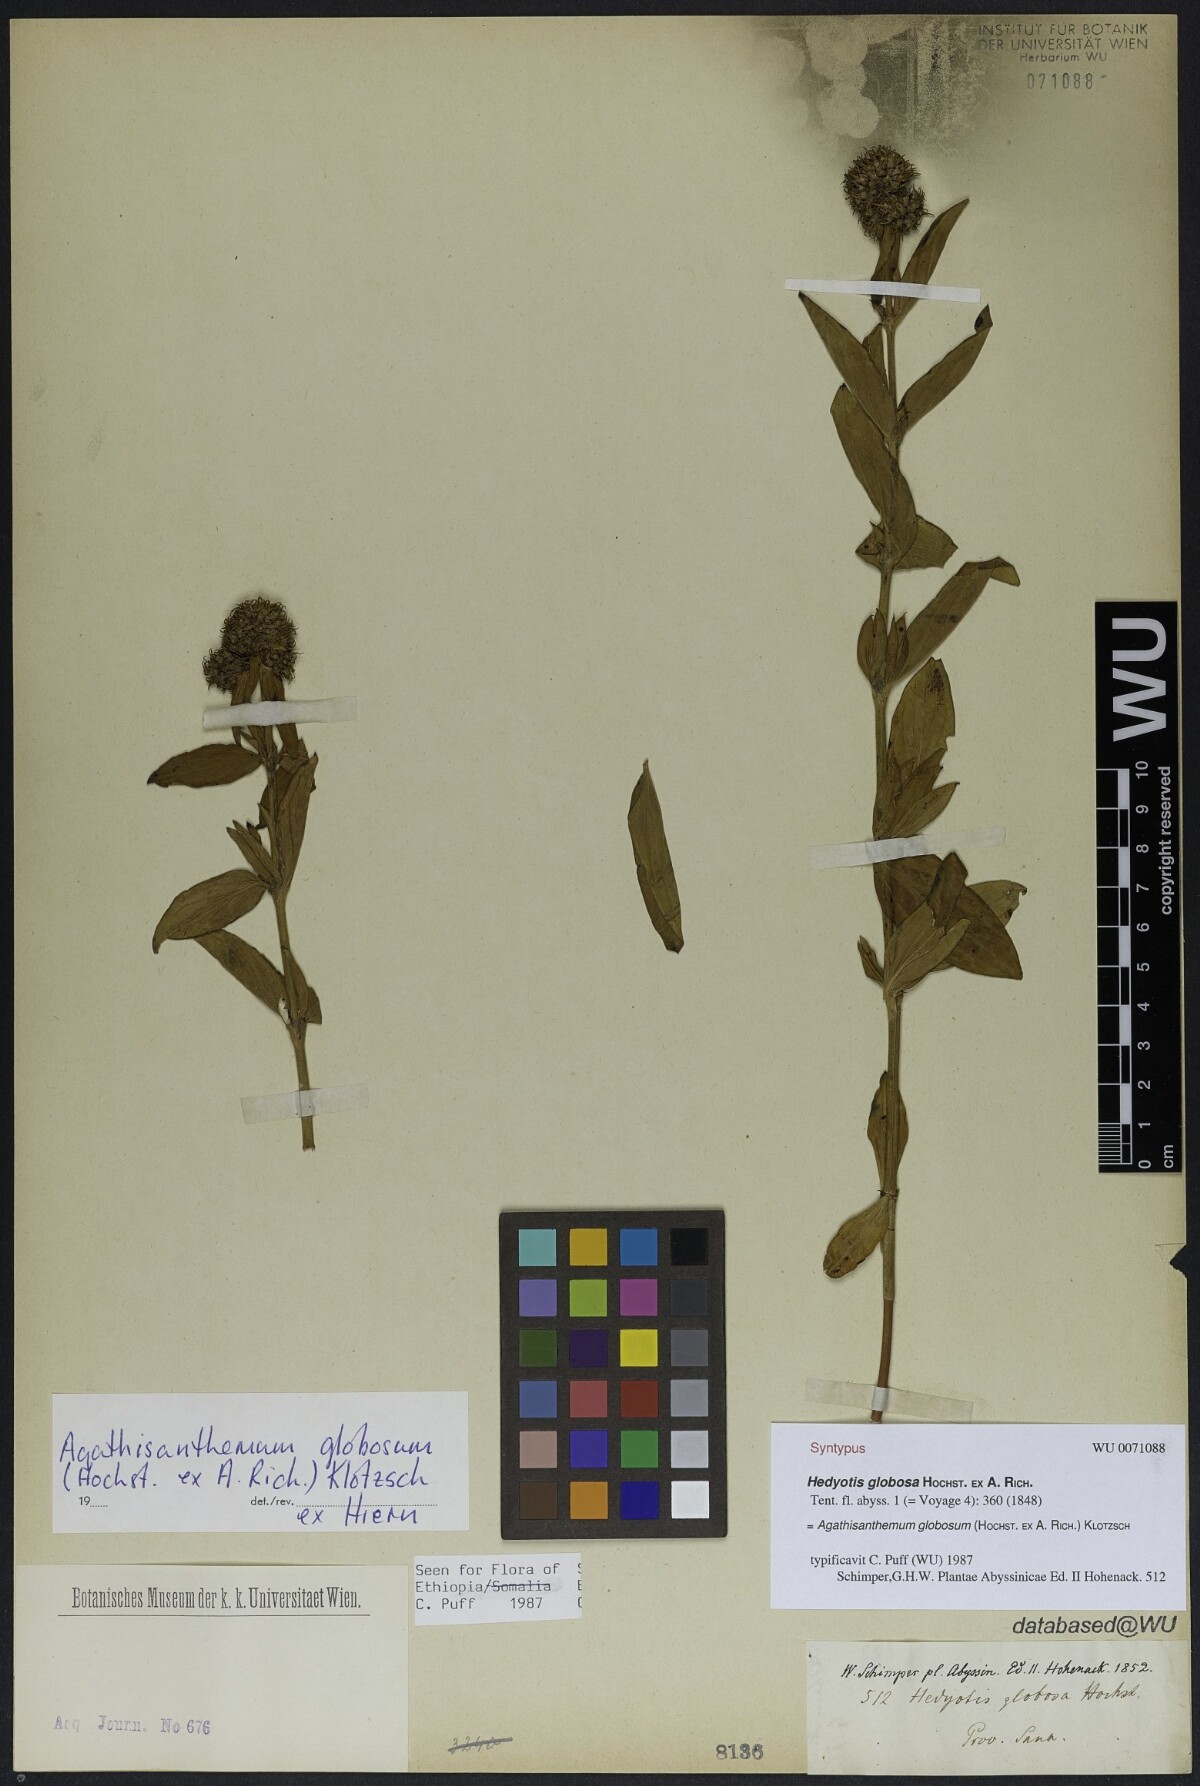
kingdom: Plantae
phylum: Tracheophyta
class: Magnoliopsida
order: Gentianales
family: Rubiaceae
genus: Agathisanthemum
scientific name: Agathisanthemum globosum
